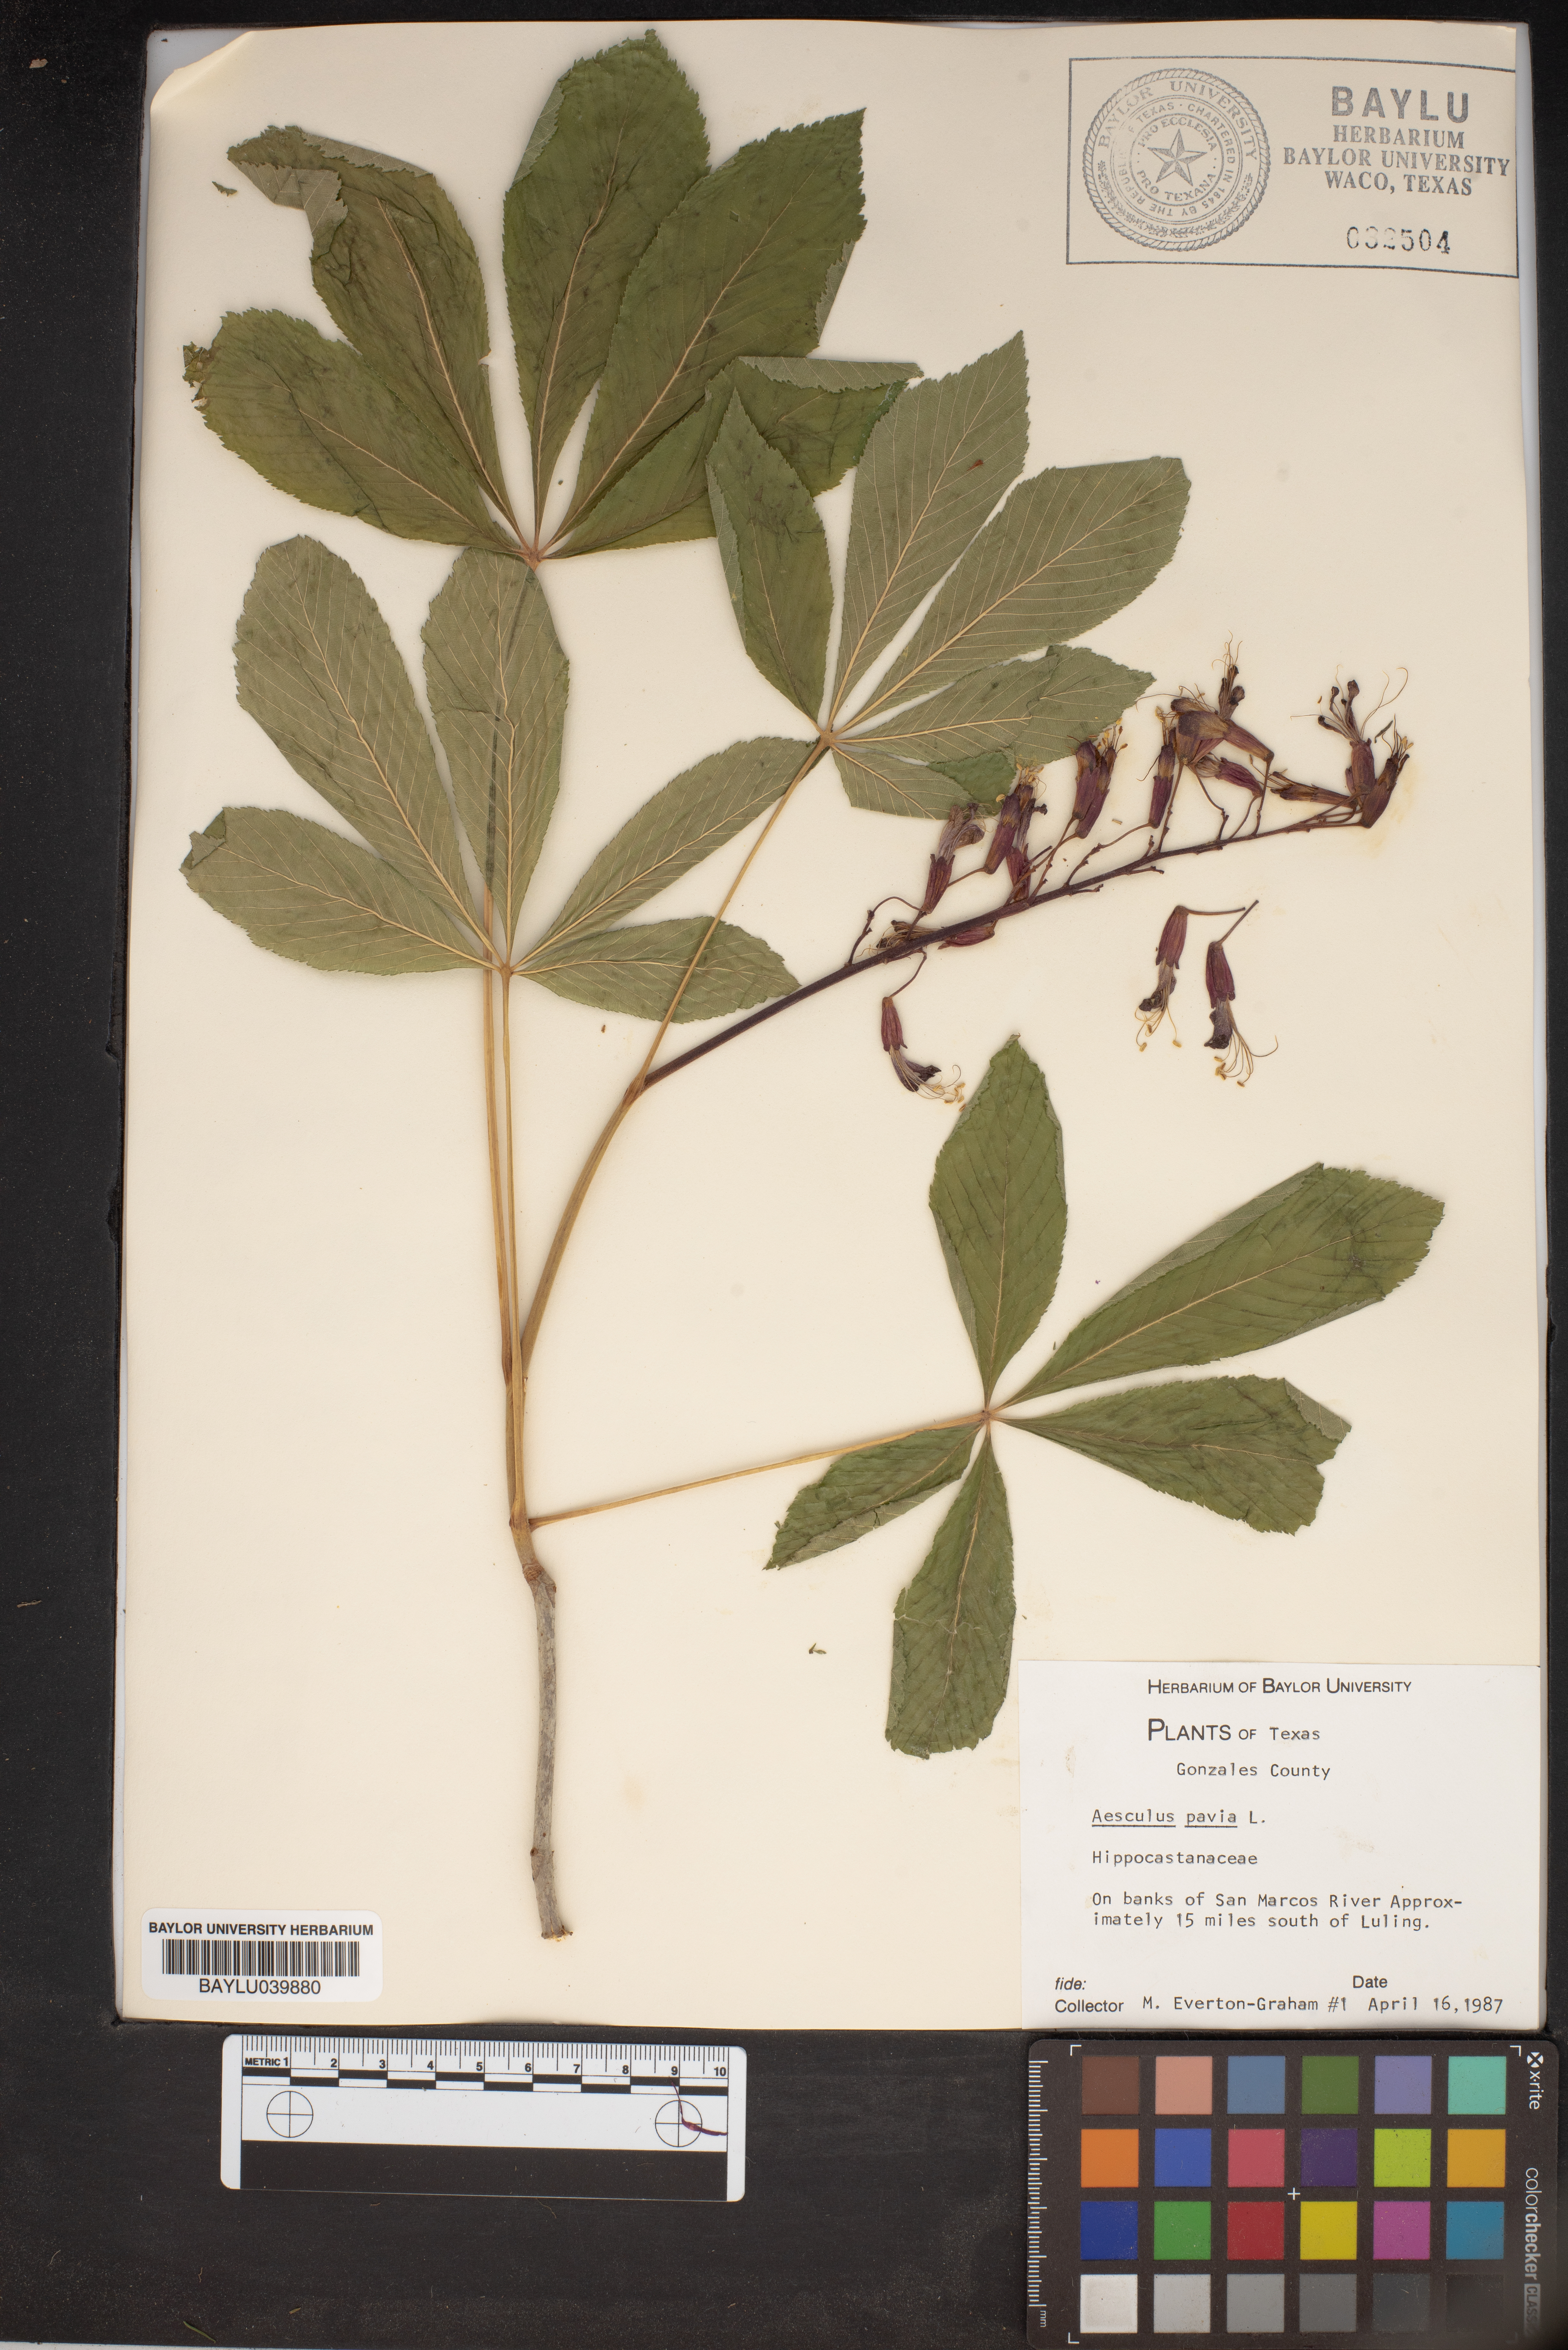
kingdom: Plantae
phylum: Tracheophyta
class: Magnoliopsida
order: Sapindales
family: Sapindaceae
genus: Aesculus
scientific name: Aesculus pavia
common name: Red buckeye
